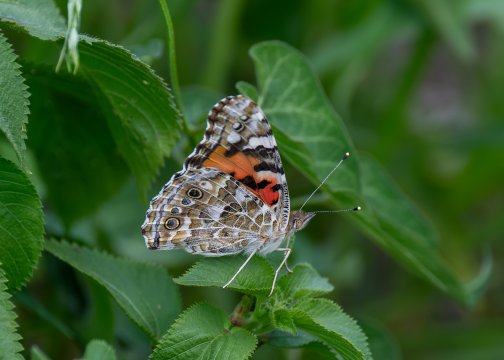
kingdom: Animalia
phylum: Arthropoda
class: Insecta
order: Lepidoptera
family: Nymphalidae
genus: Vanessa
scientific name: Vanessa cardui
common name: Painted Lady
